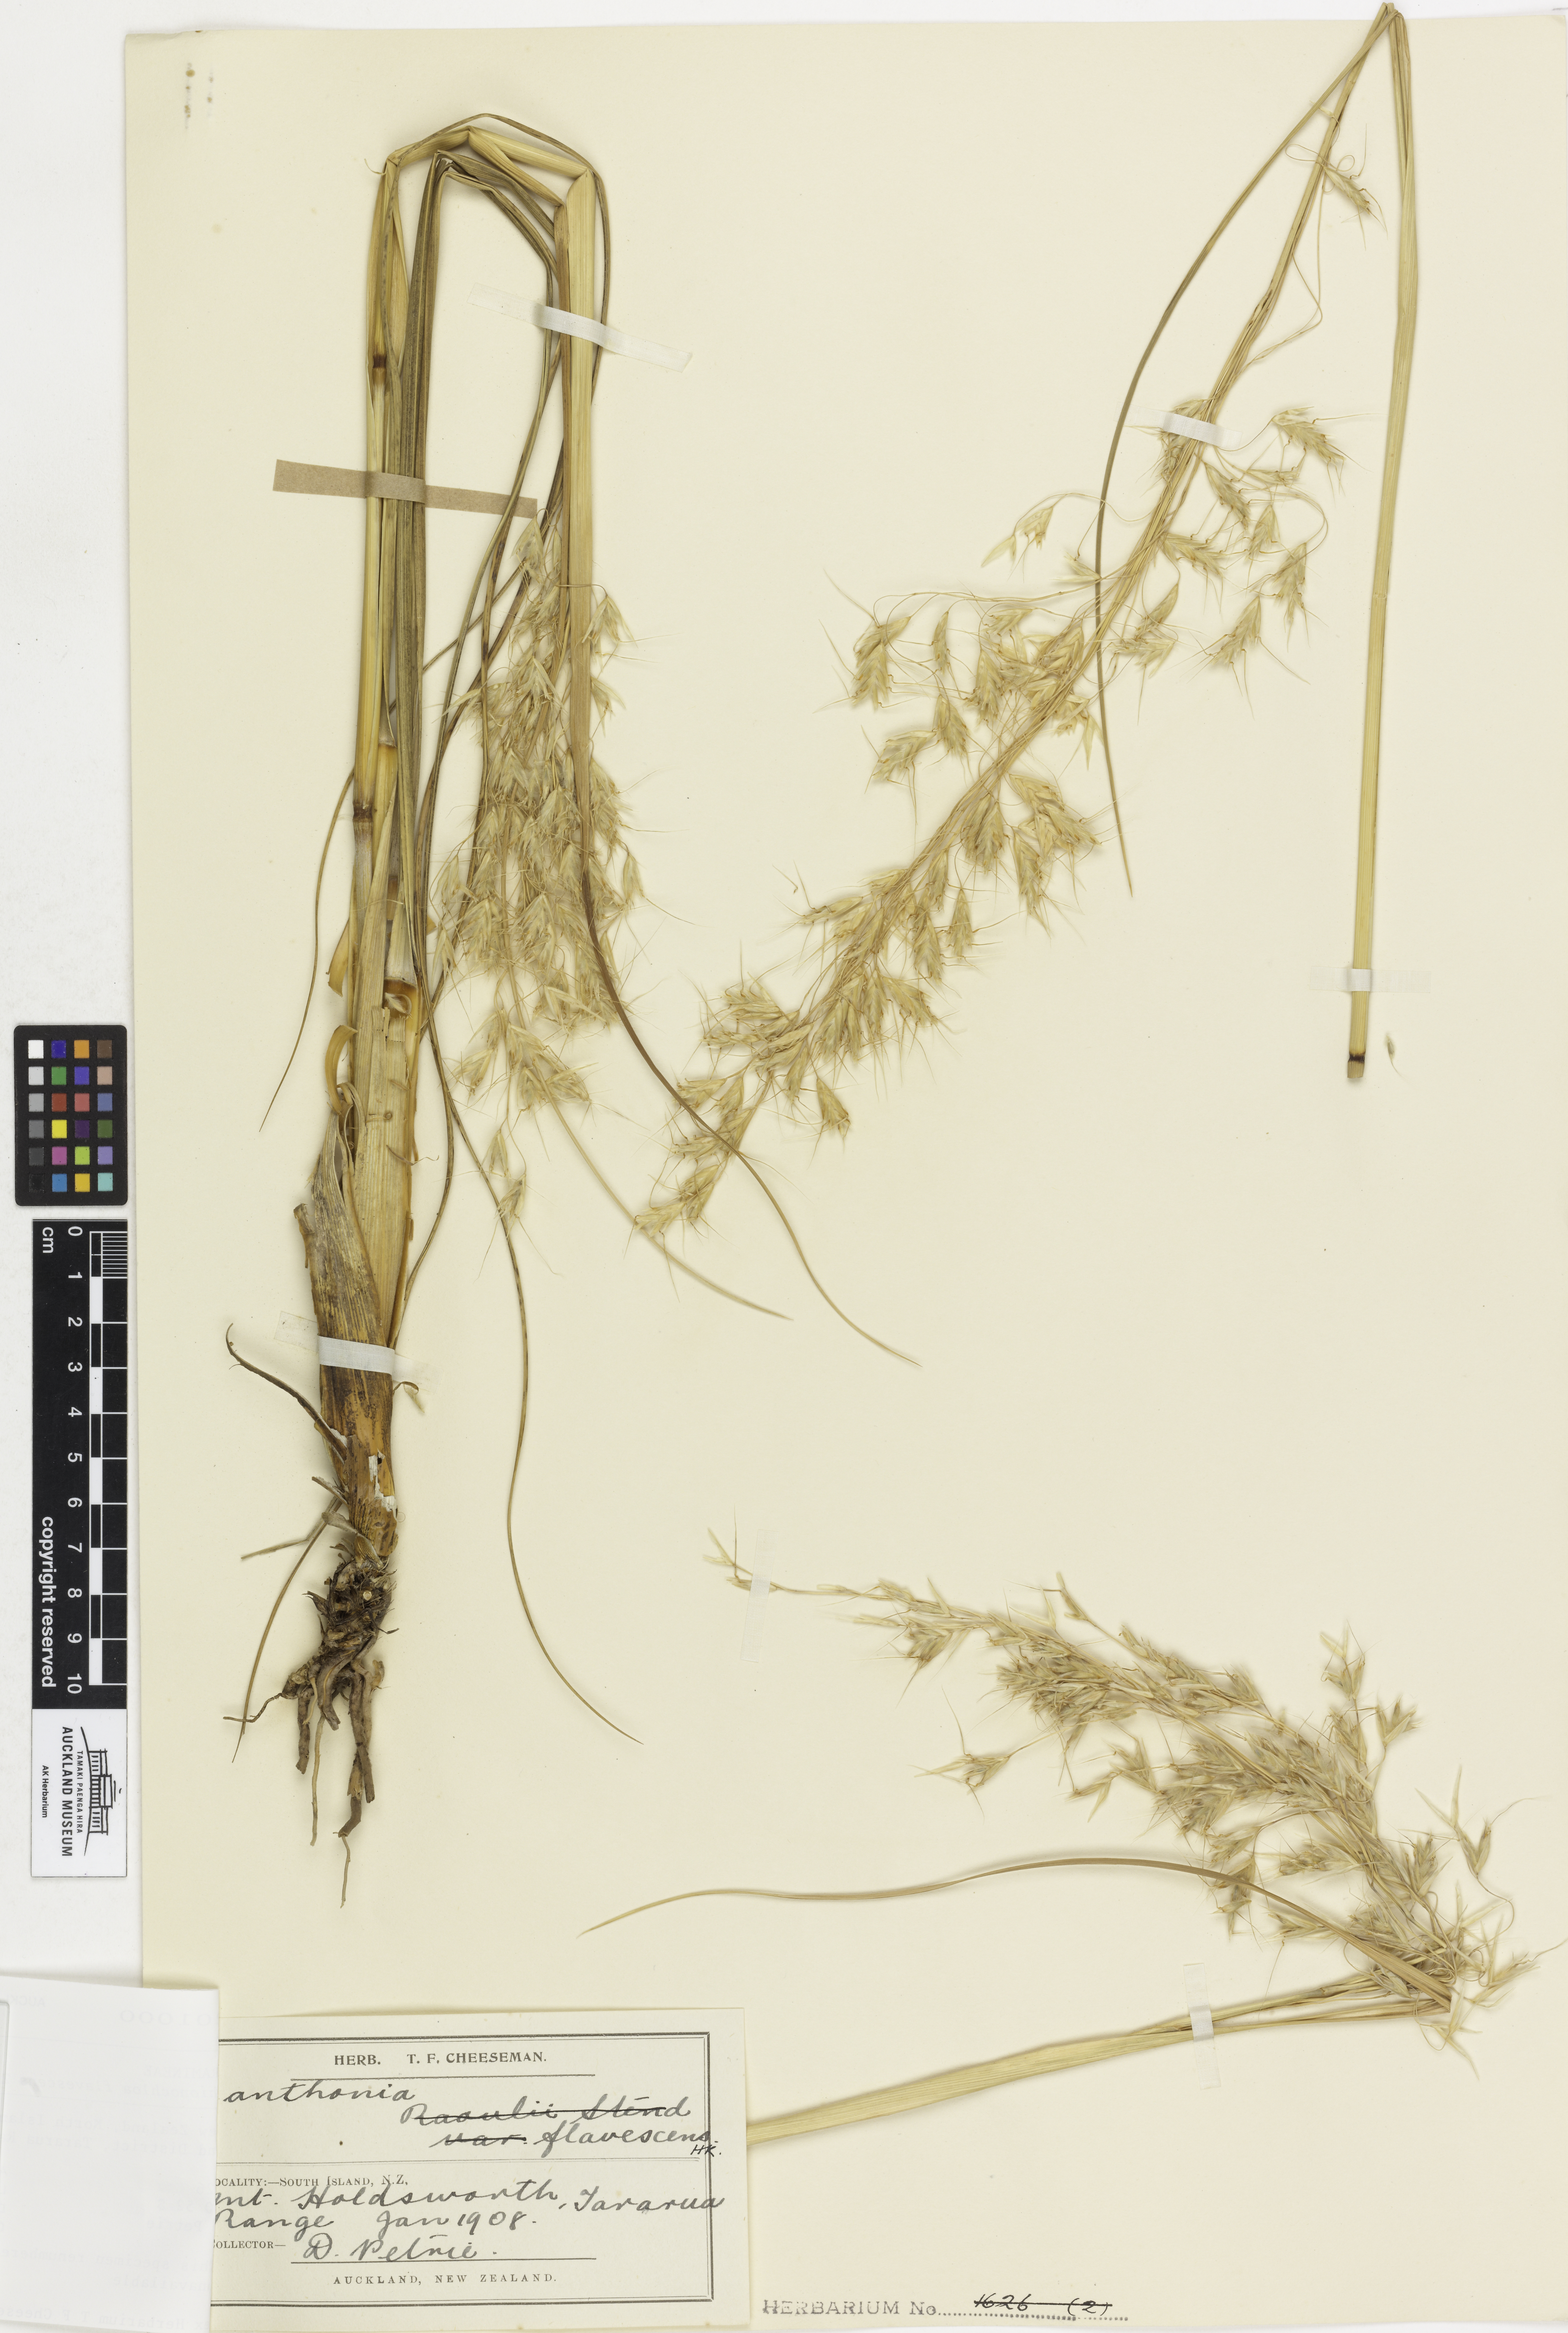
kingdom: Plantae
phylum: Tracheophyta
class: Liliopsida
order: Poales
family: Poaceae
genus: Chionochloa
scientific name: Chionochloa flavescens
